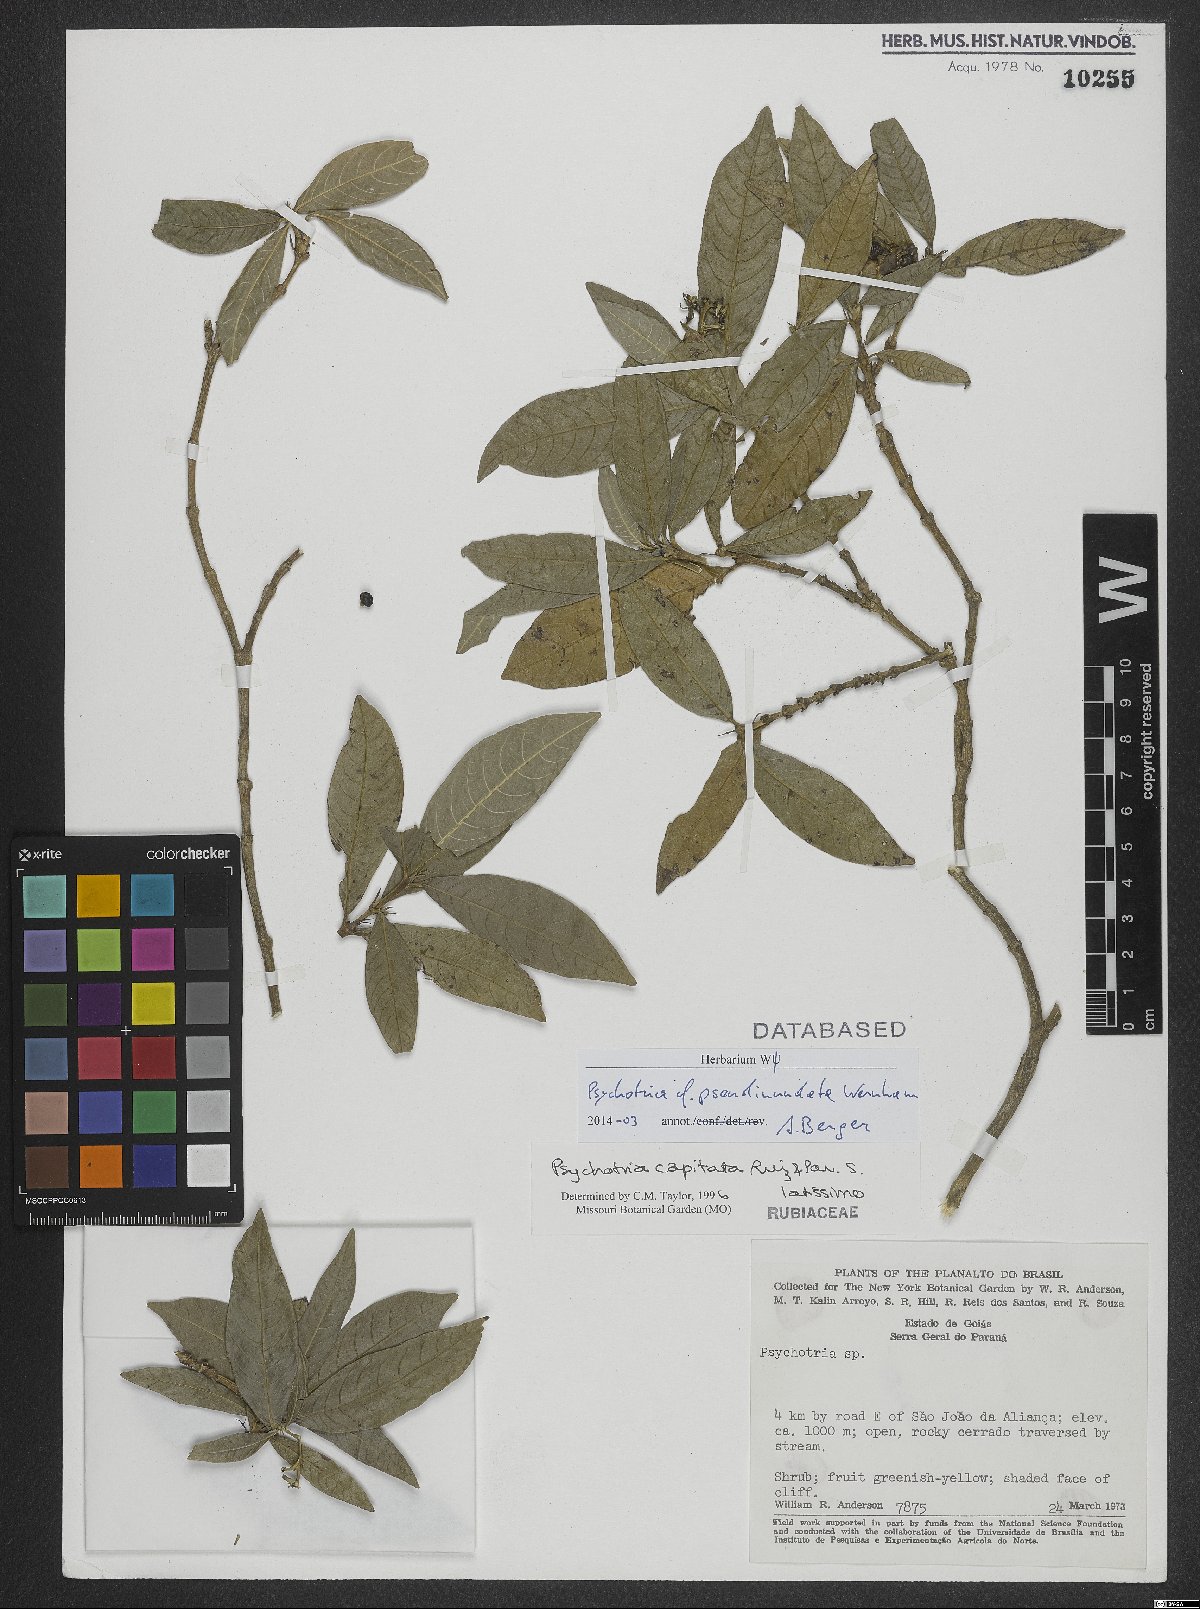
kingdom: Plantae
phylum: Tracheophyta
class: Magnoliopsida
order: Gentianales
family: Rubiaceae
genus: Palicourea
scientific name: Palicourea pseudinundata
